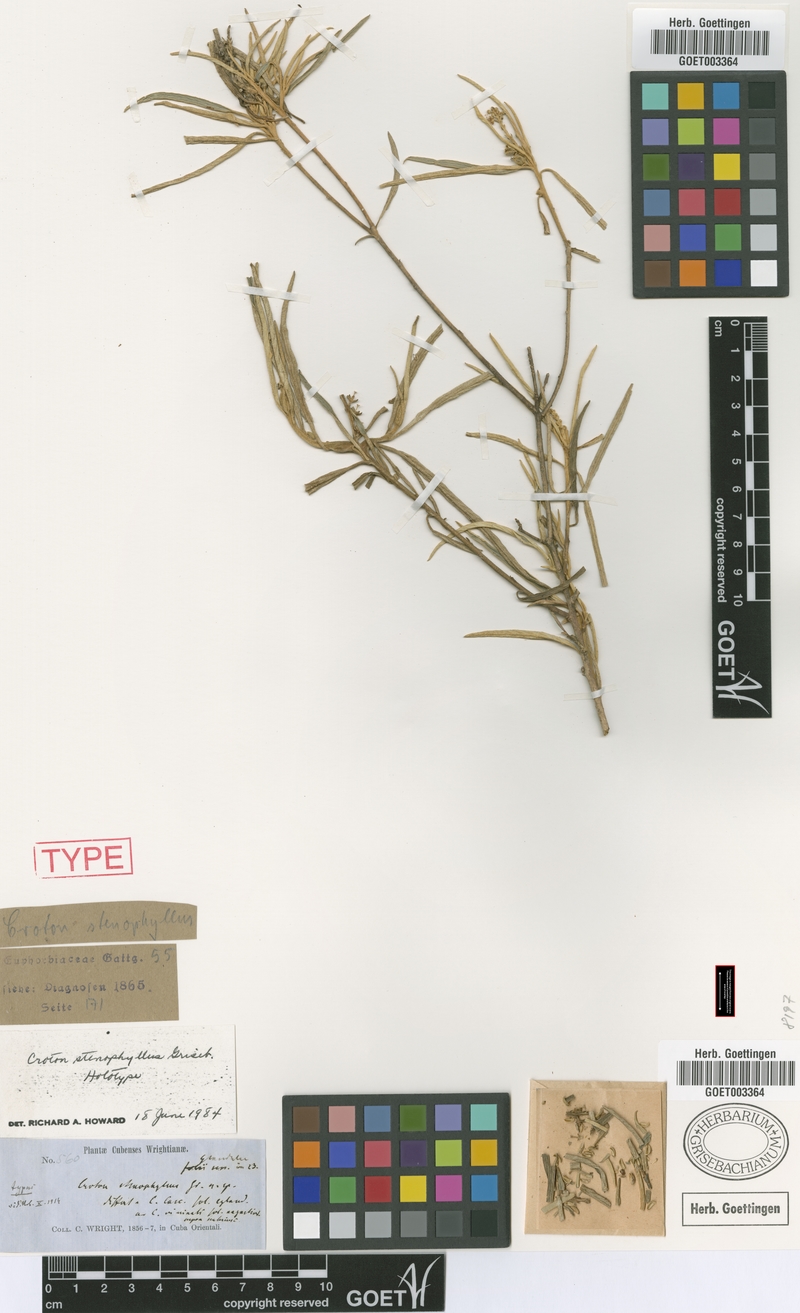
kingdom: Plantae
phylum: Tracheophyta
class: Magnoliopsida
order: Malpighiales
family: Euphorbiaceae
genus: Croton
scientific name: Croton stenophyllus
